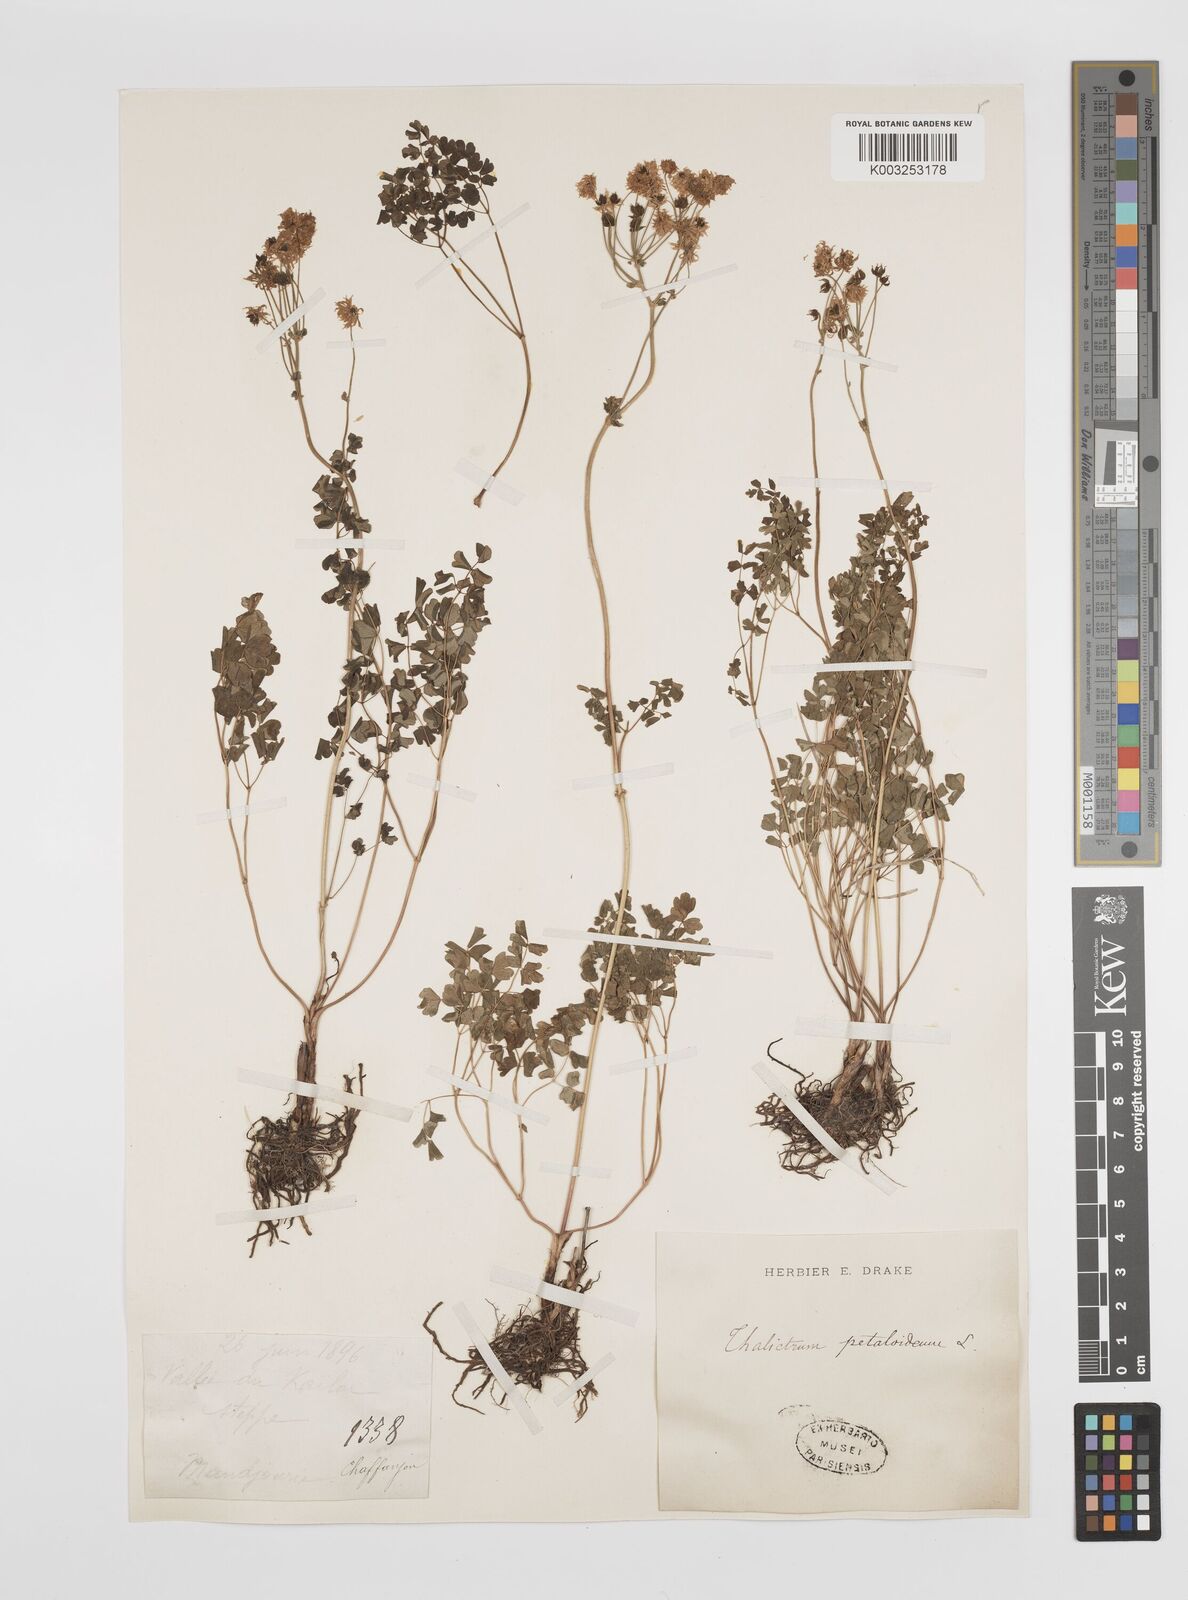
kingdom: Plantae
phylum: Tracheophyta
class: Magnoliopsida
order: Ranunculales
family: Ranunculaceae
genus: Thalictrum
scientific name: Thalictrum petaloideum
